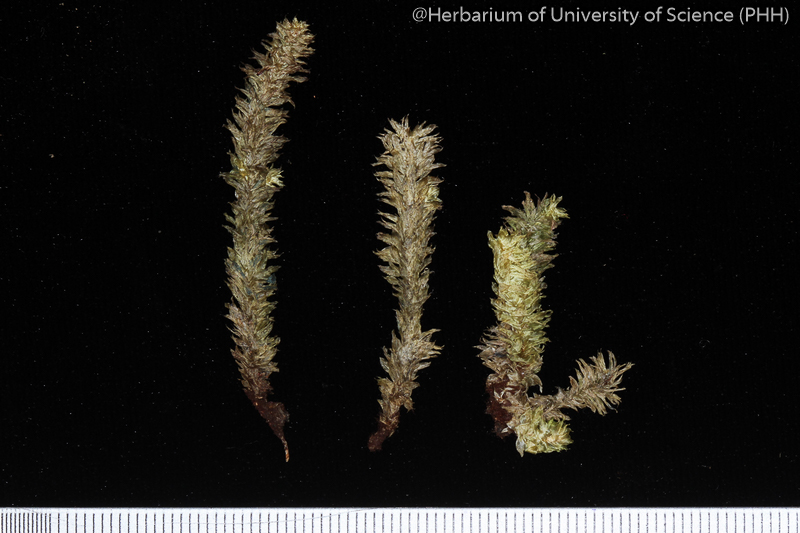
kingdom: Plantae
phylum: Bryophyta
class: Bryopsida
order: Ptychomniales
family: Ptychomniaceae
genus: Garovaglia
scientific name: Garovaglia powellii
